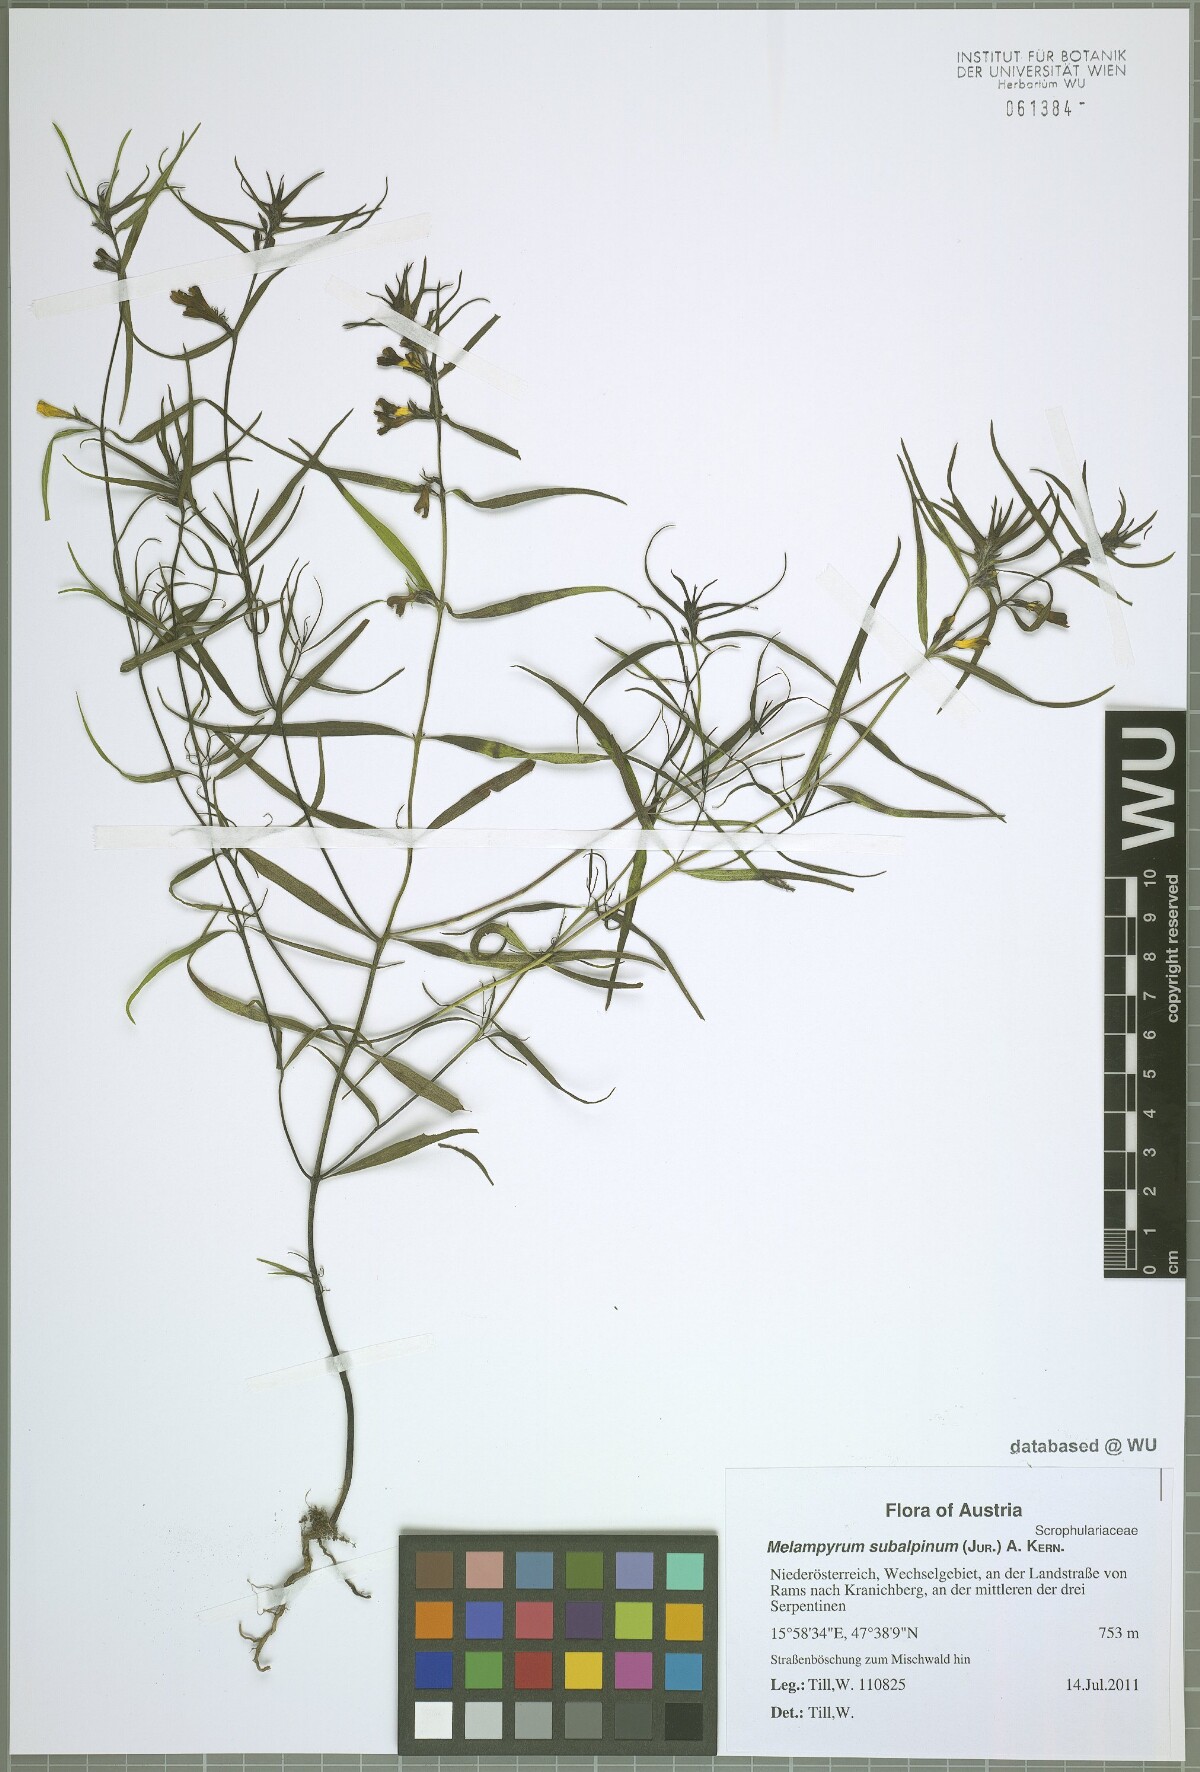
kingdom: Plantae
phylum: Tracheophyta
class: Magnoliopsida
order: Lamiales
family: Orobanchaceae
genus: Melampyrum
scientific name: Melampyrum subalpinum
